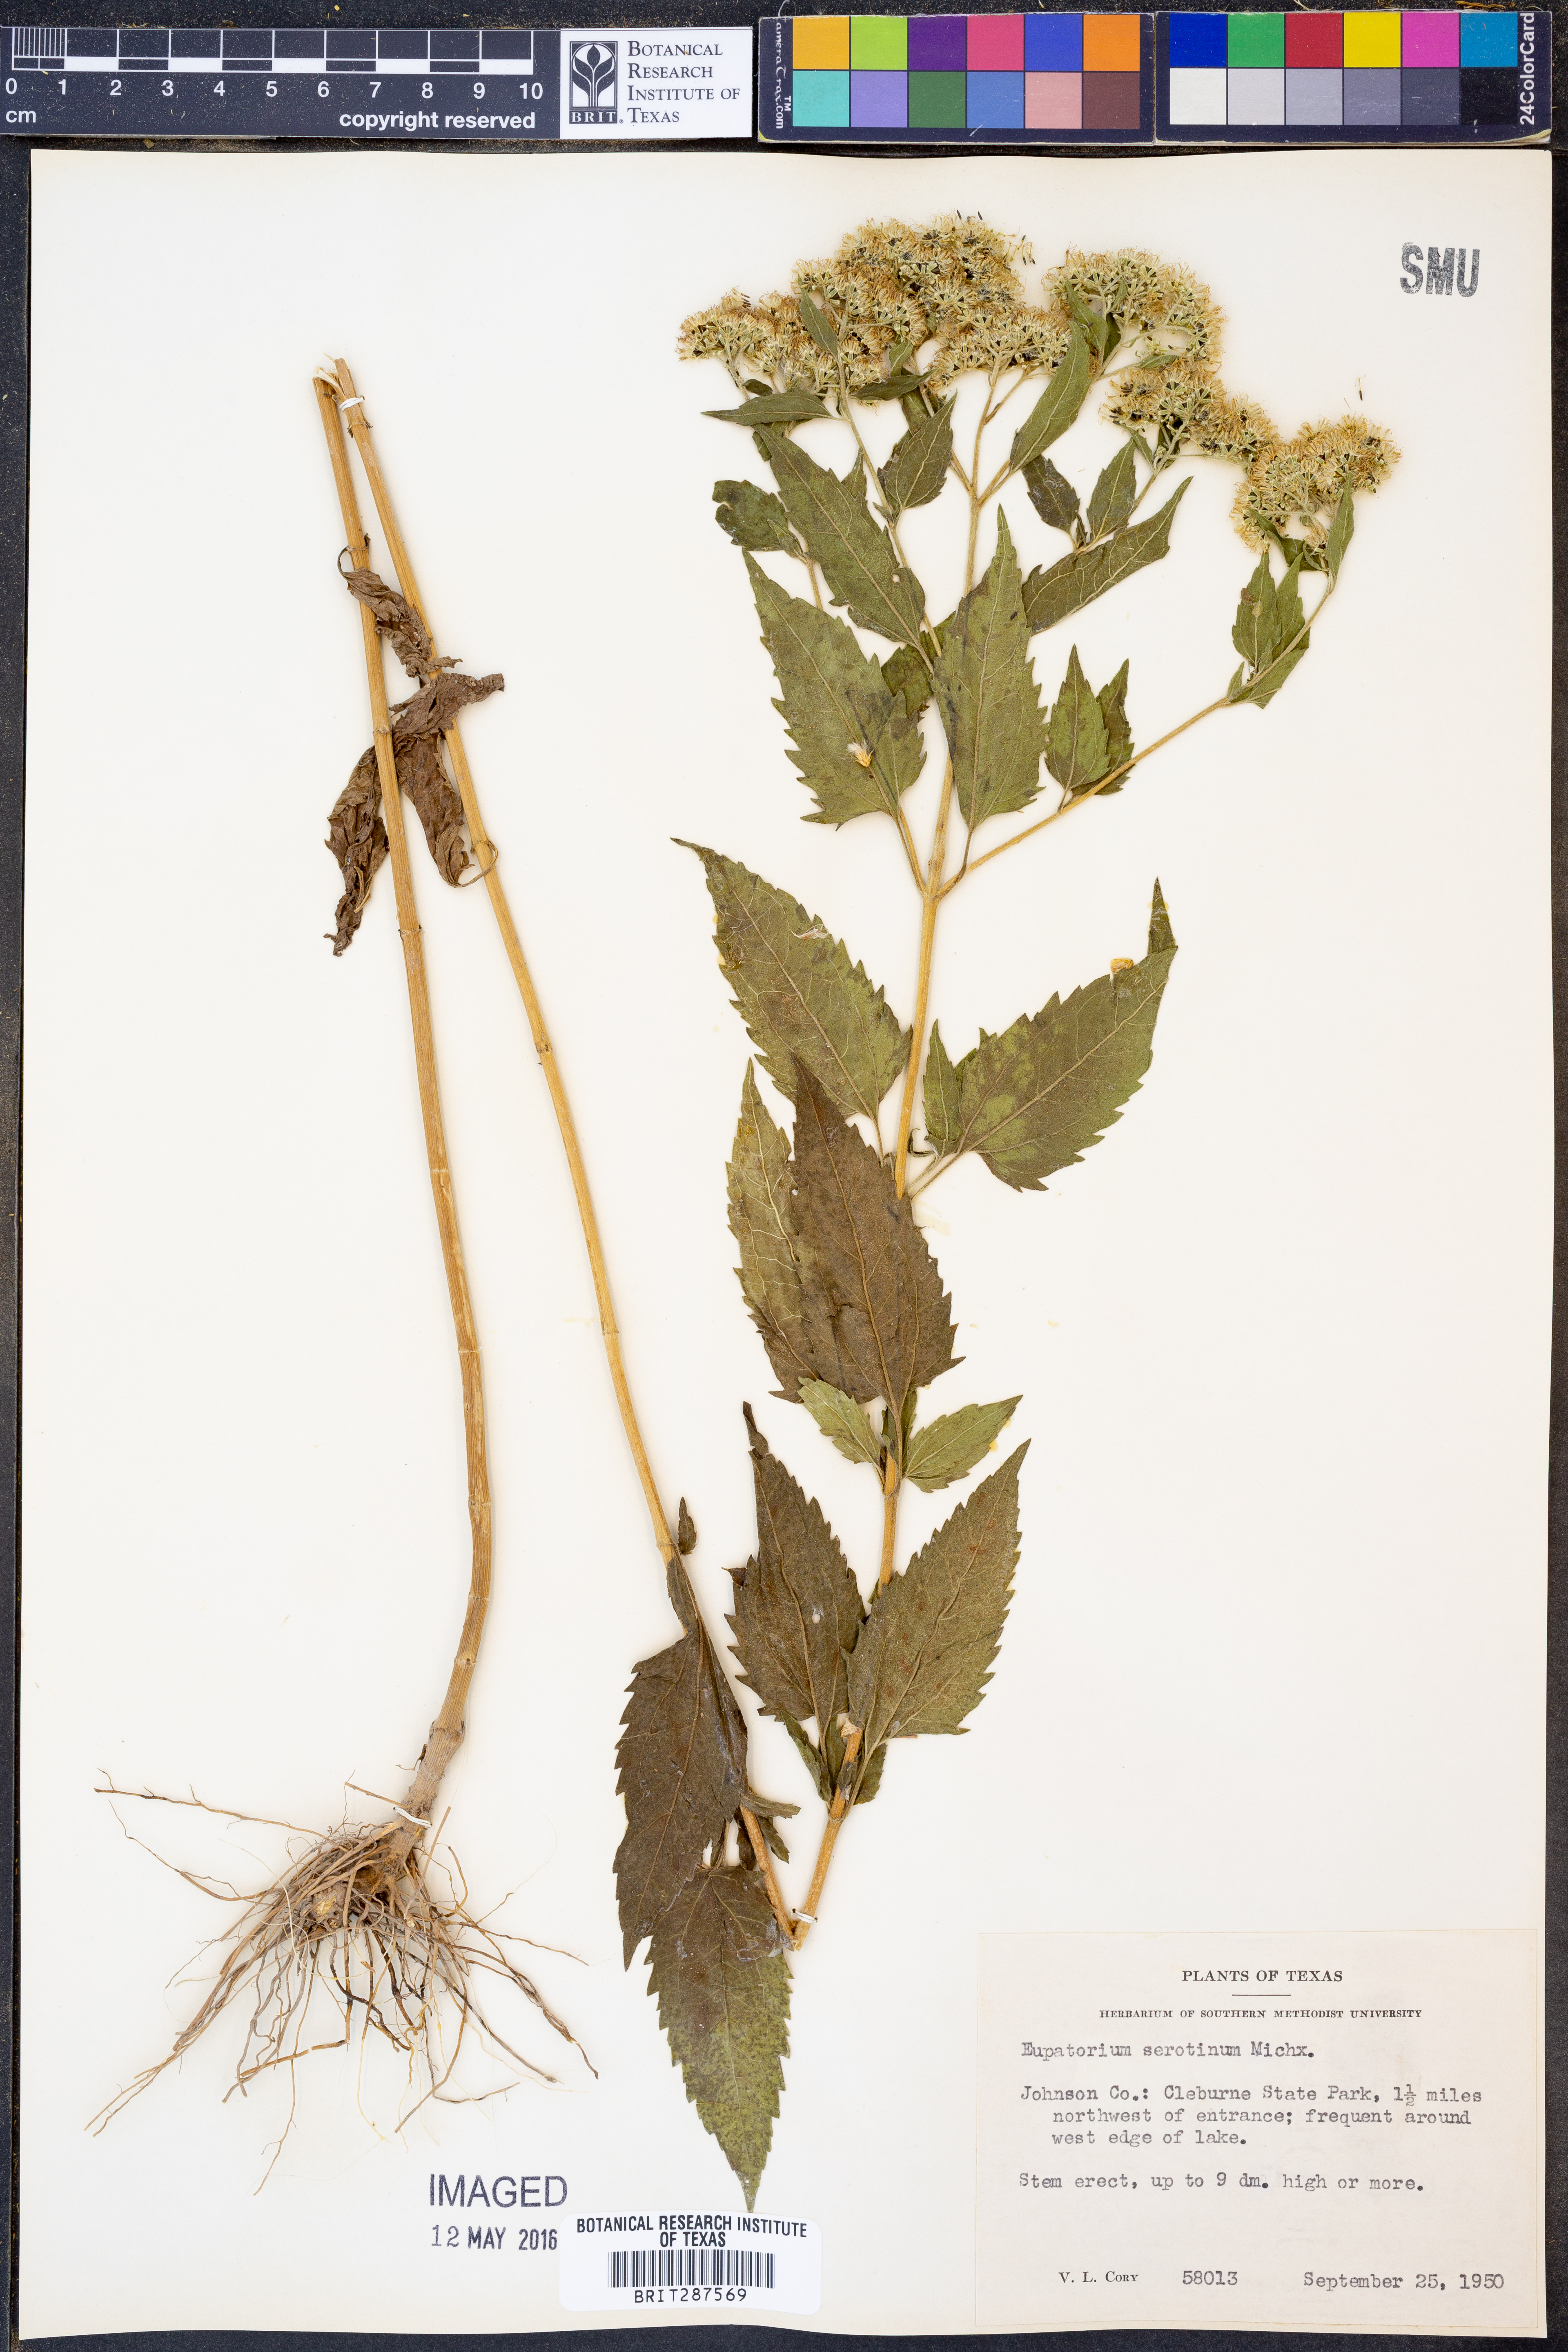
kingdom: Plantae
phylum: Tracheophyta
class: Magnoliopsida
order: Asterales
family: Asteraceae
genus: Eupatorium
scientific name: Eupatorium serotinum
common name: Late boneset
